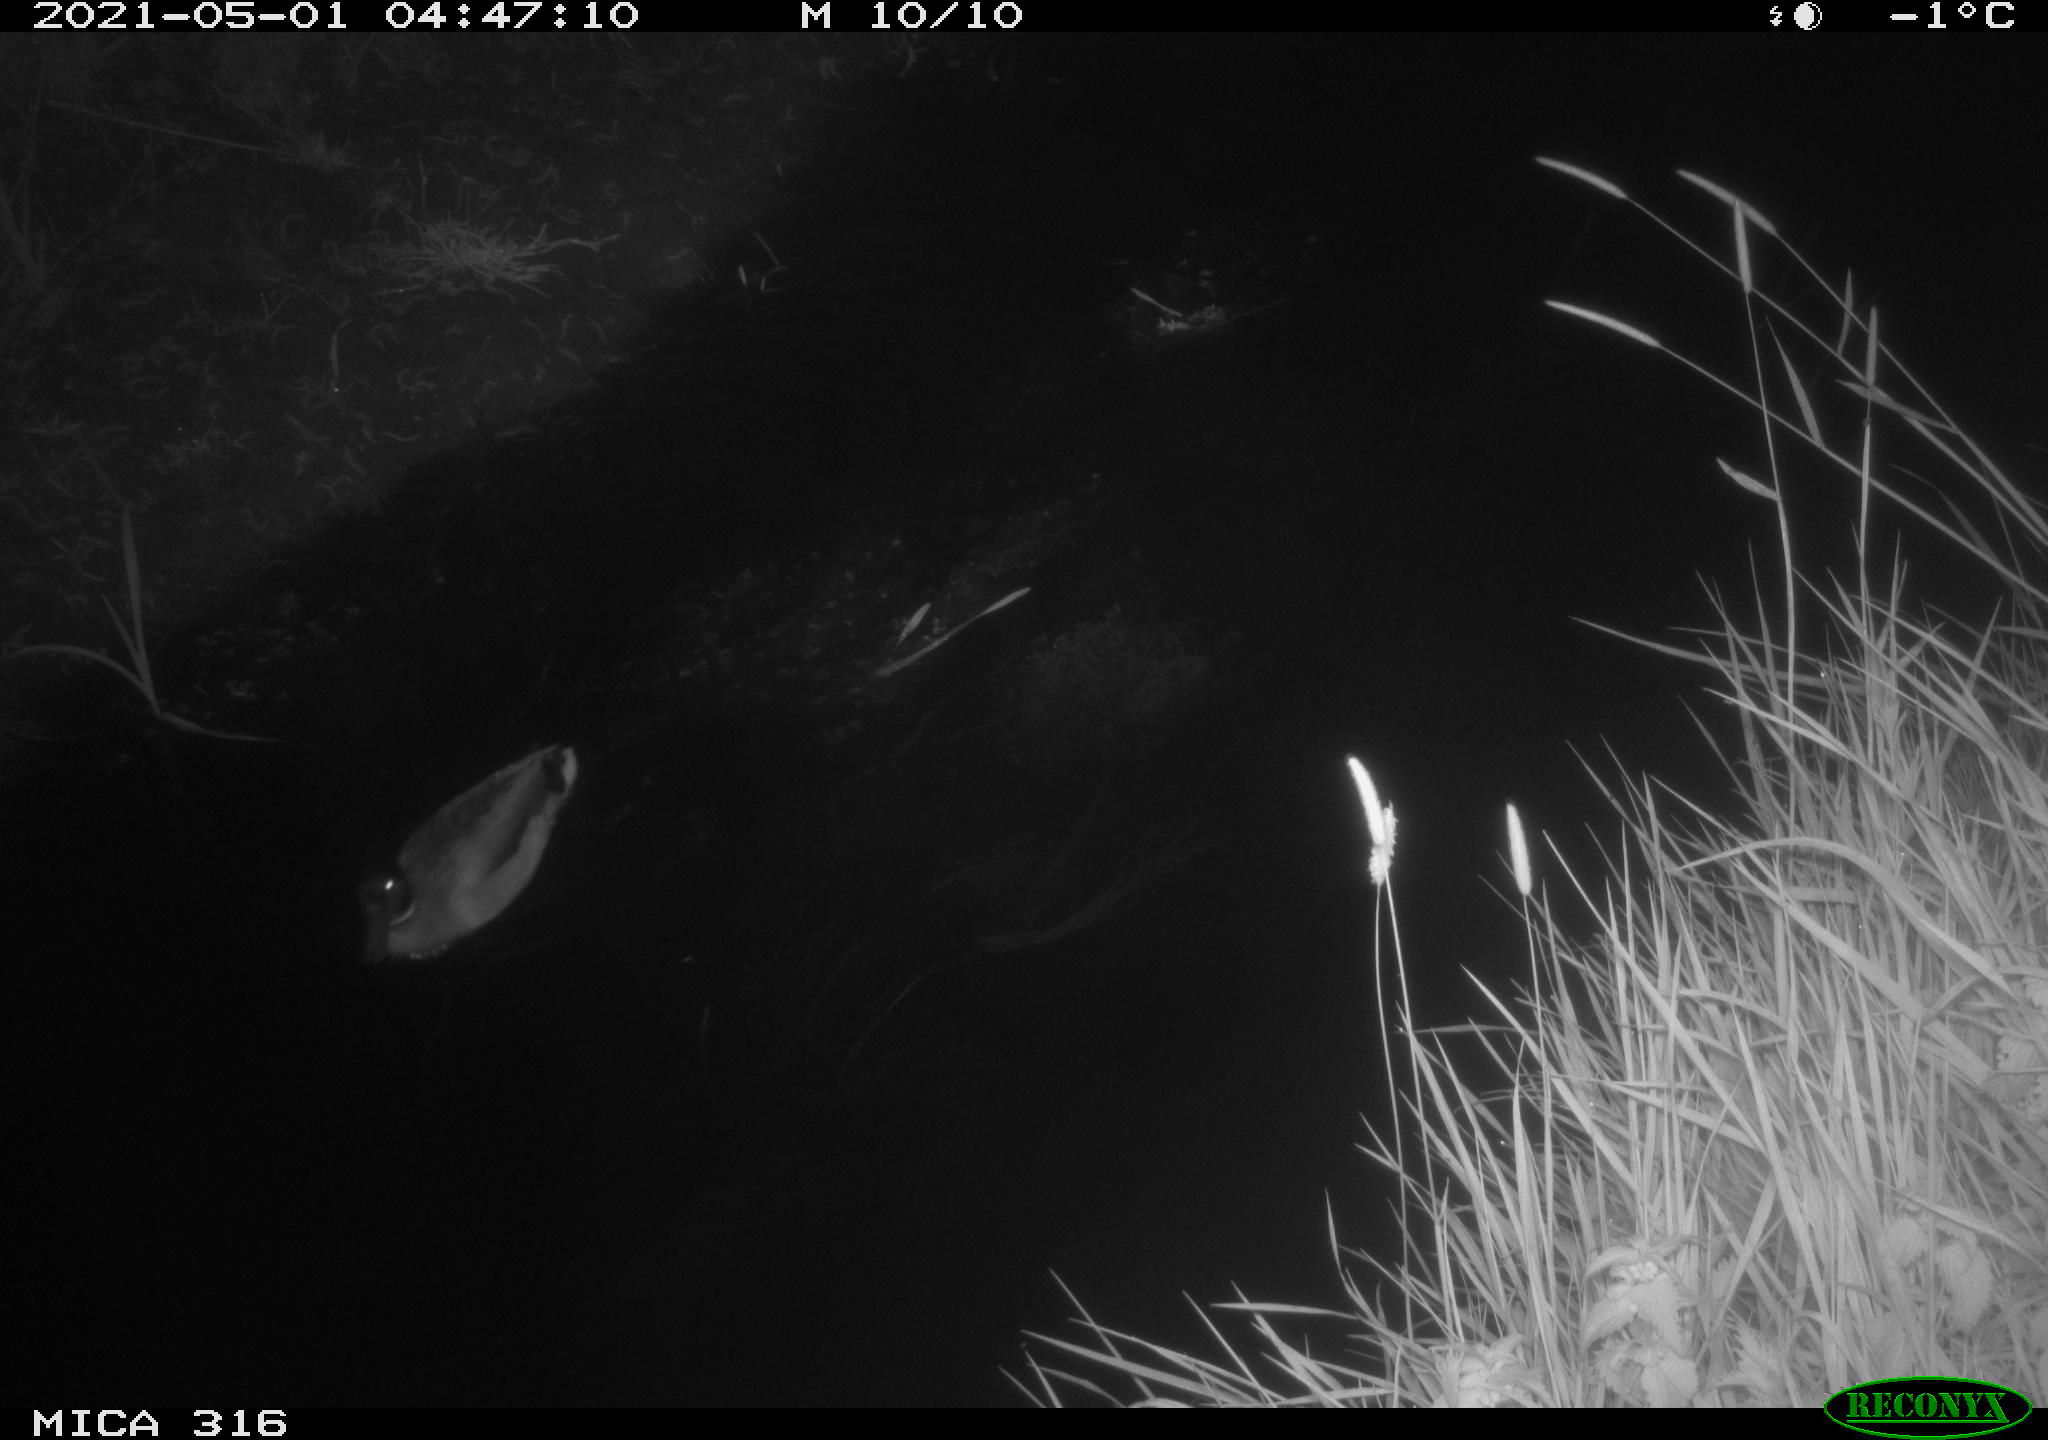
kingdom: Animalia
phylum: Chordata
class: Aves
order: Anseriformes
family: Anatidae
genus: Anas
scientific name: Anas platyrhynchos
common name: Mallard
